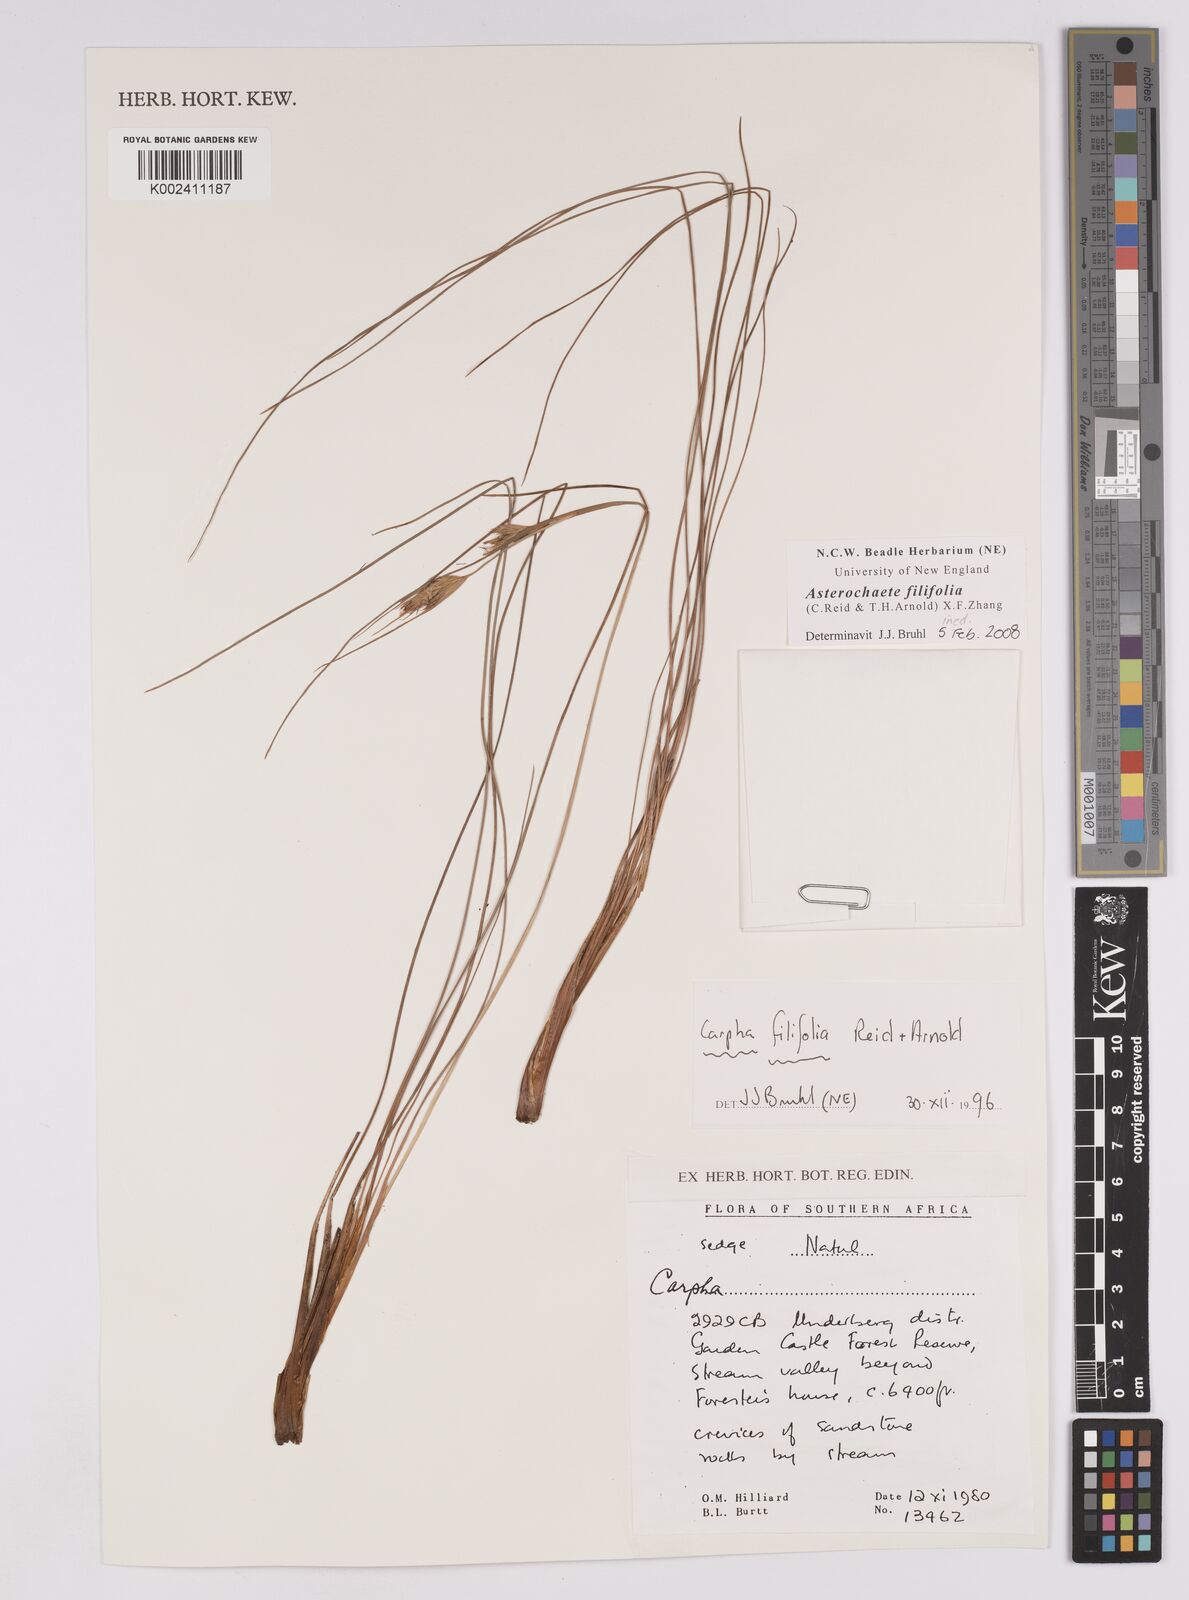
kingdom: Plantae
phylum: Tracheophyta
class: Liliopsida
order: Poales
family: Cyperaceae
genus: Carpha
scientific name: Carpha filifolia
